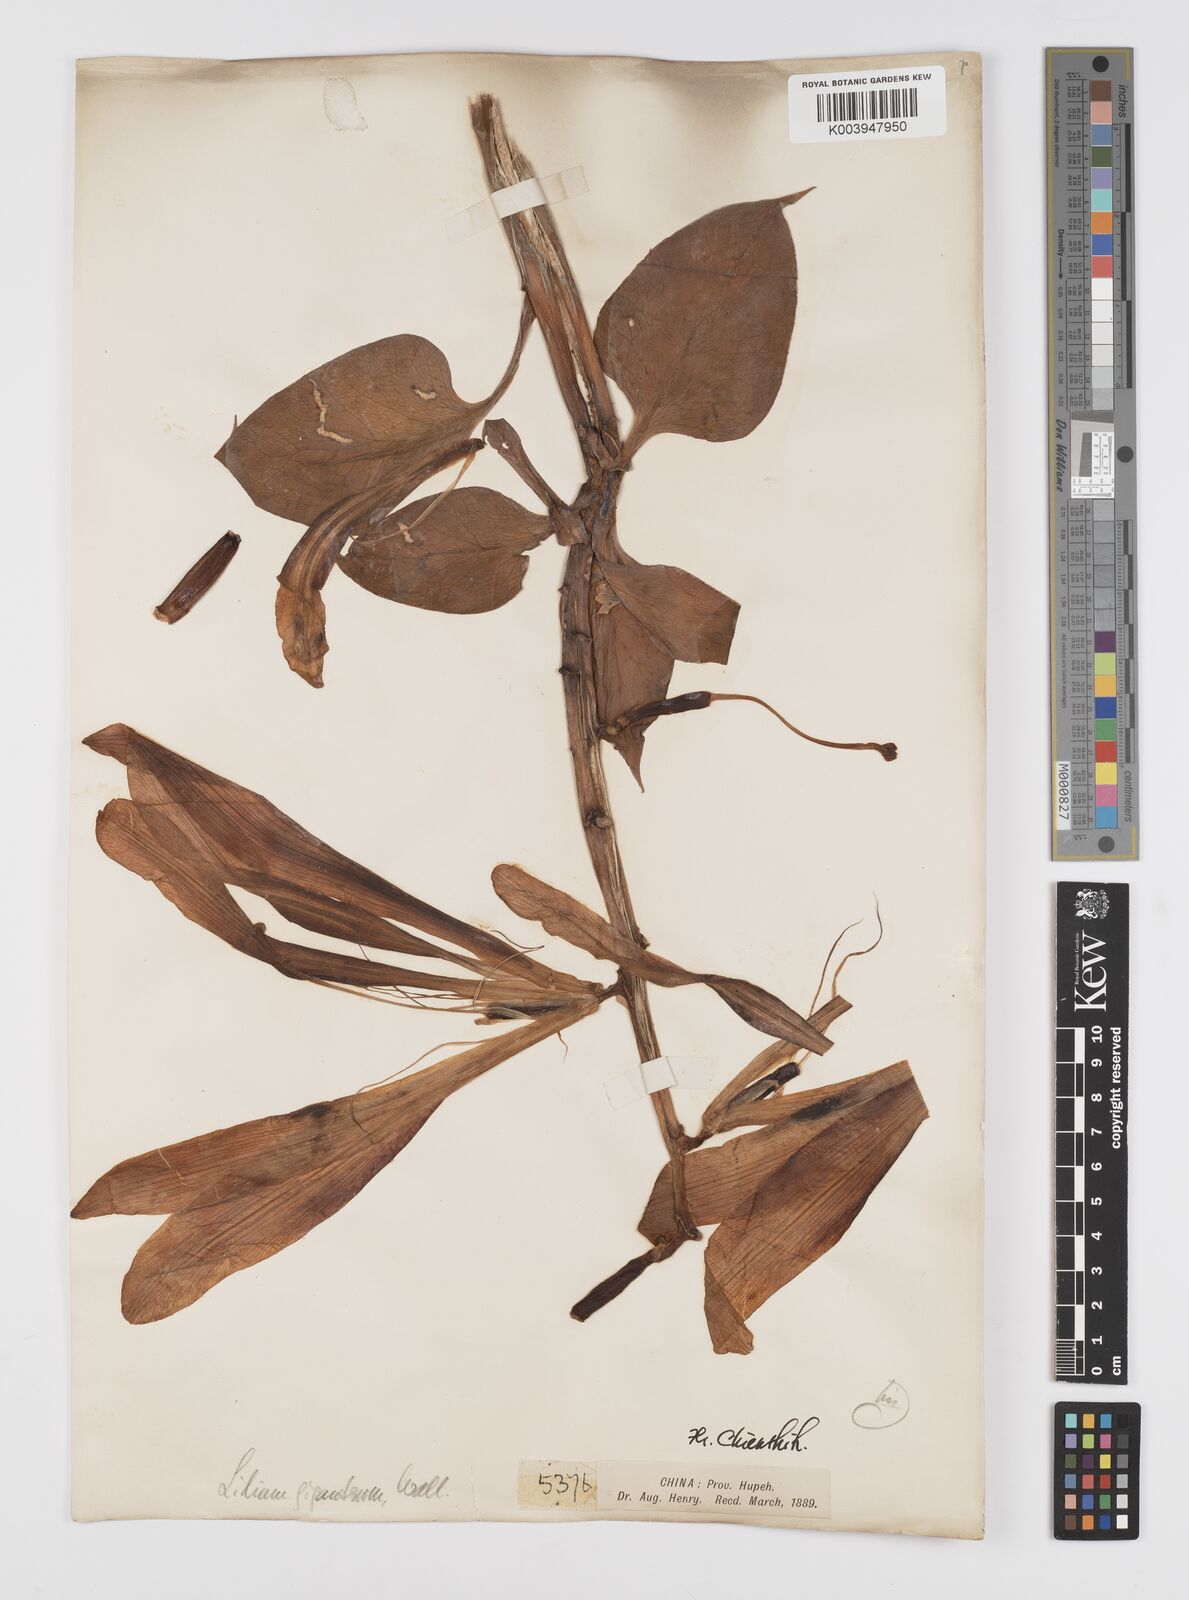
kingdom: Plantae
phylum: Tracheophyta
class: Liliopsida
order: Liliales
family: Liliaceae
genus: Cardiocrinum
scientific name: Cardiocrinum giganteum
